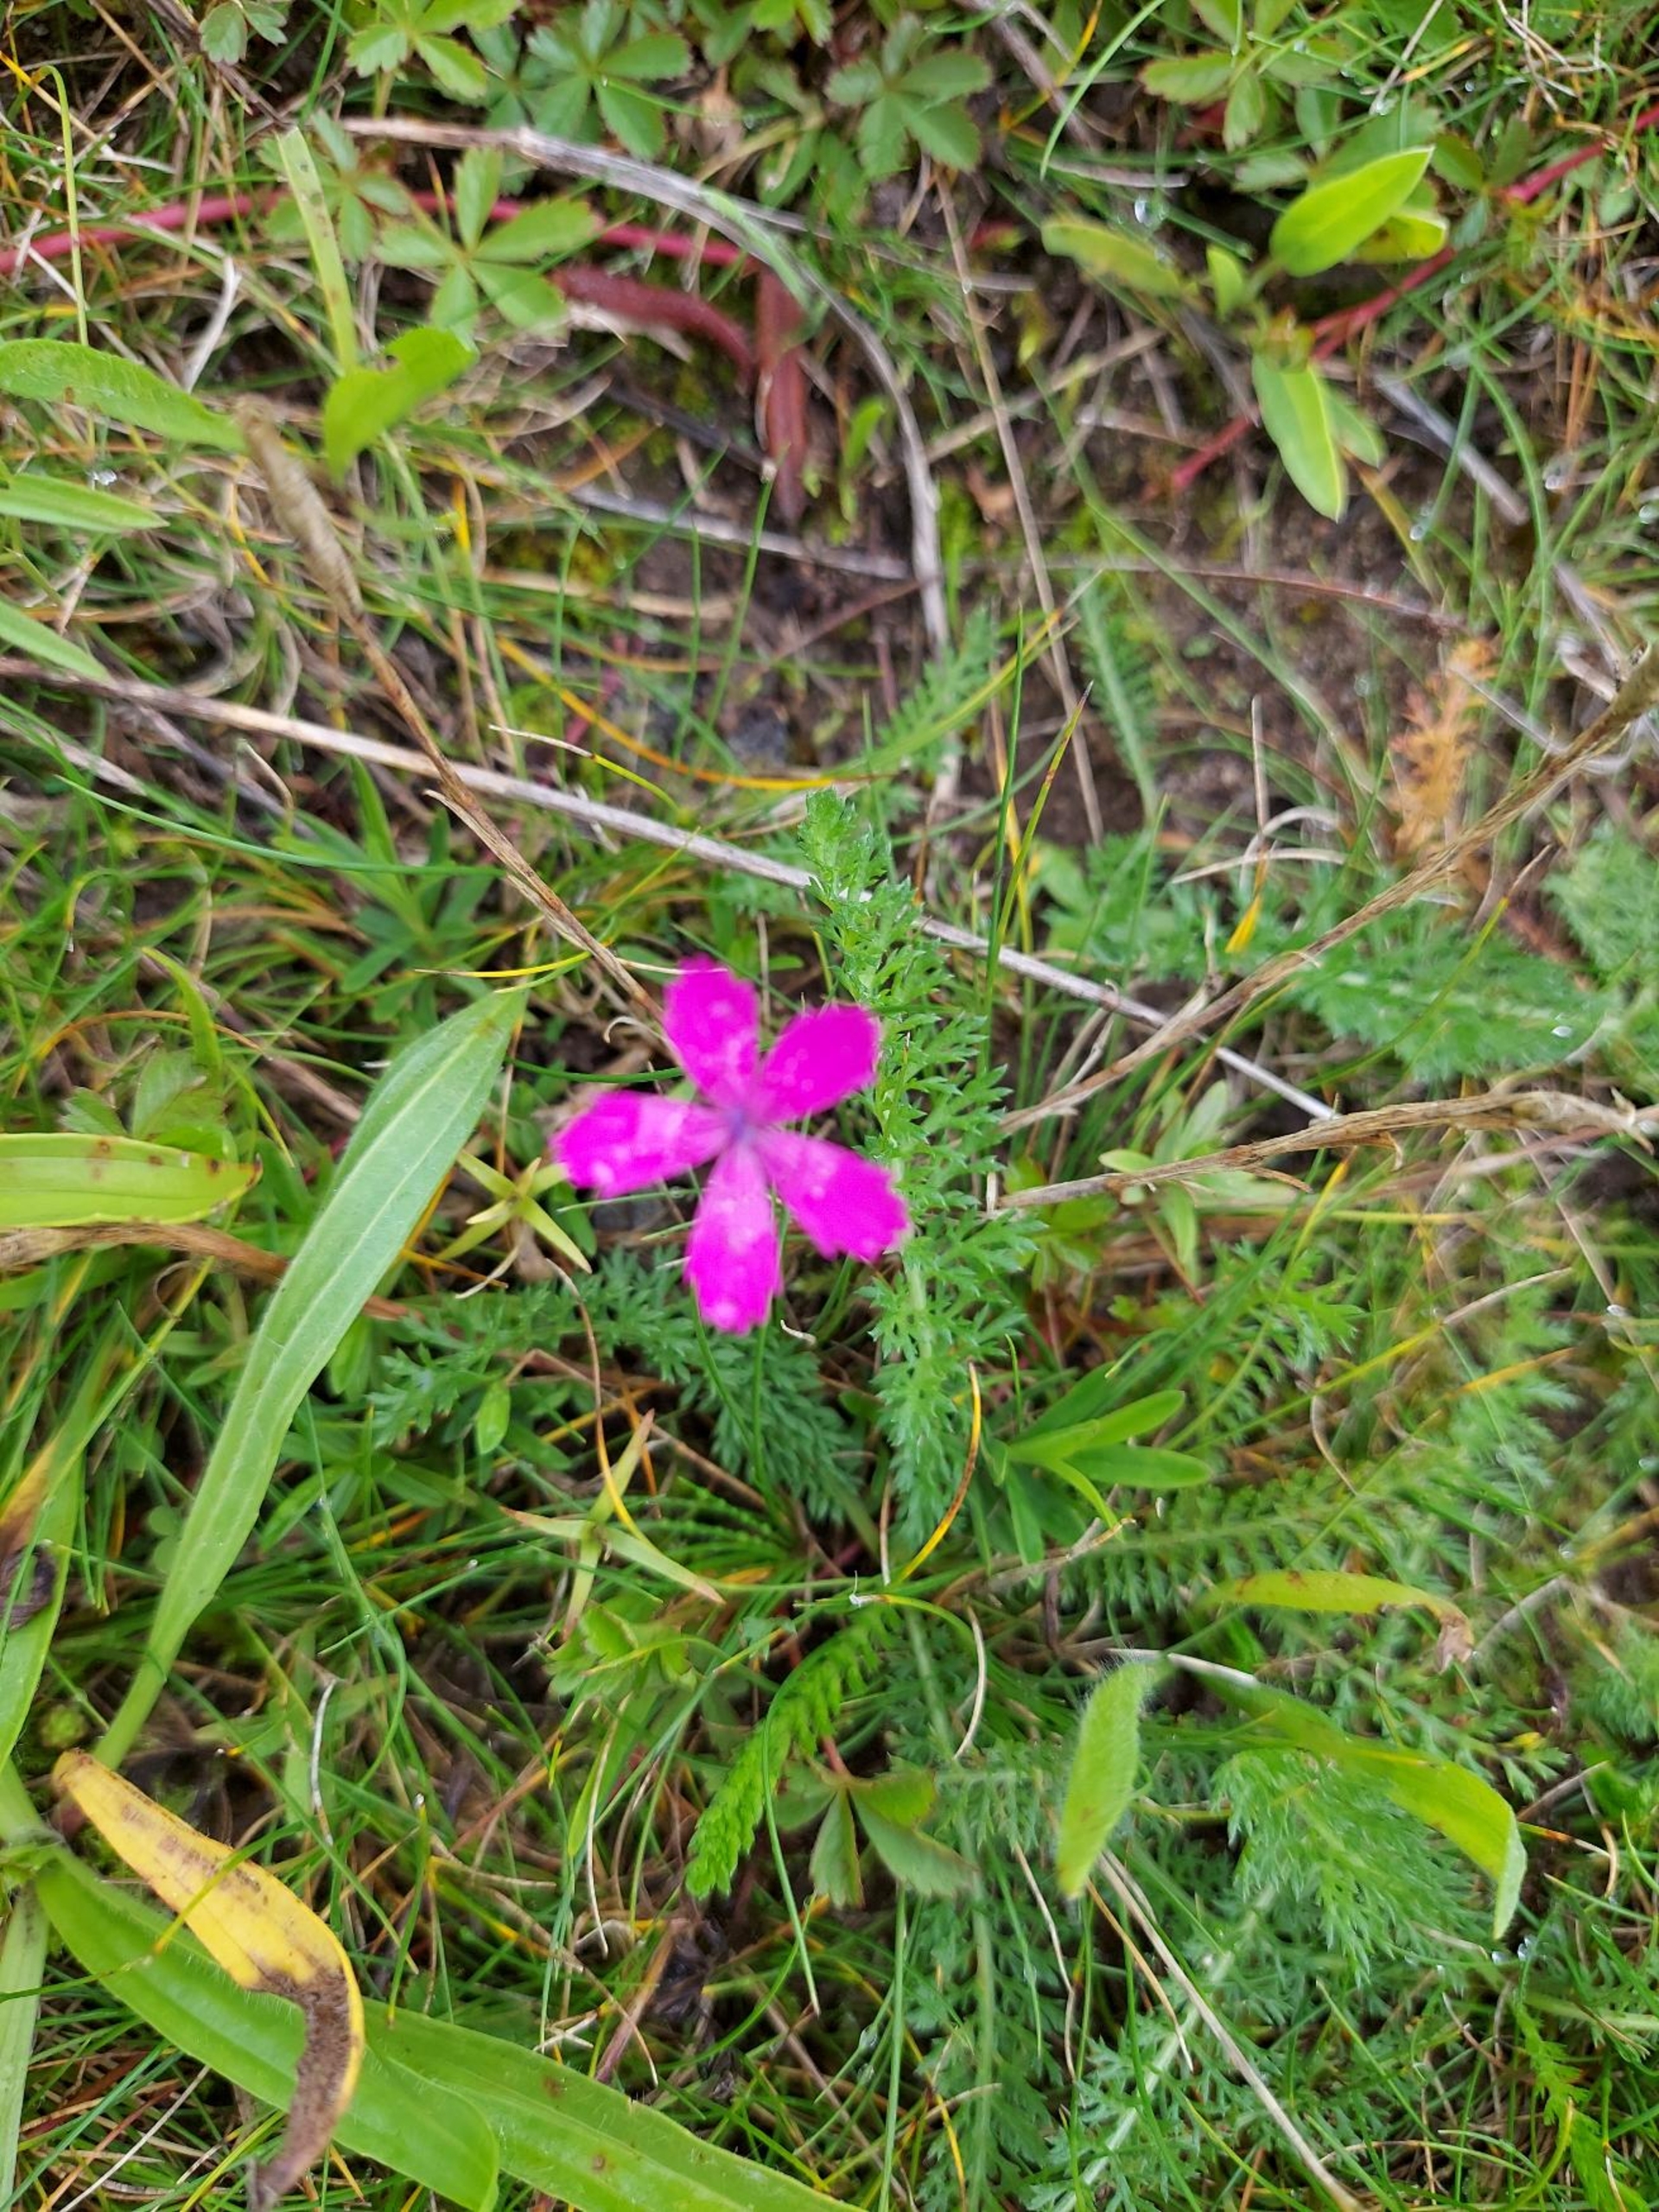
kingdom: Plantae
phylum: Tracheophyta
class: Magnoliopsida
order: Caryophyllales
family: Caryophyllaceae
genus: Dianthus
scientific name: Dianthus deltoides
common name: Bakke-nellike
